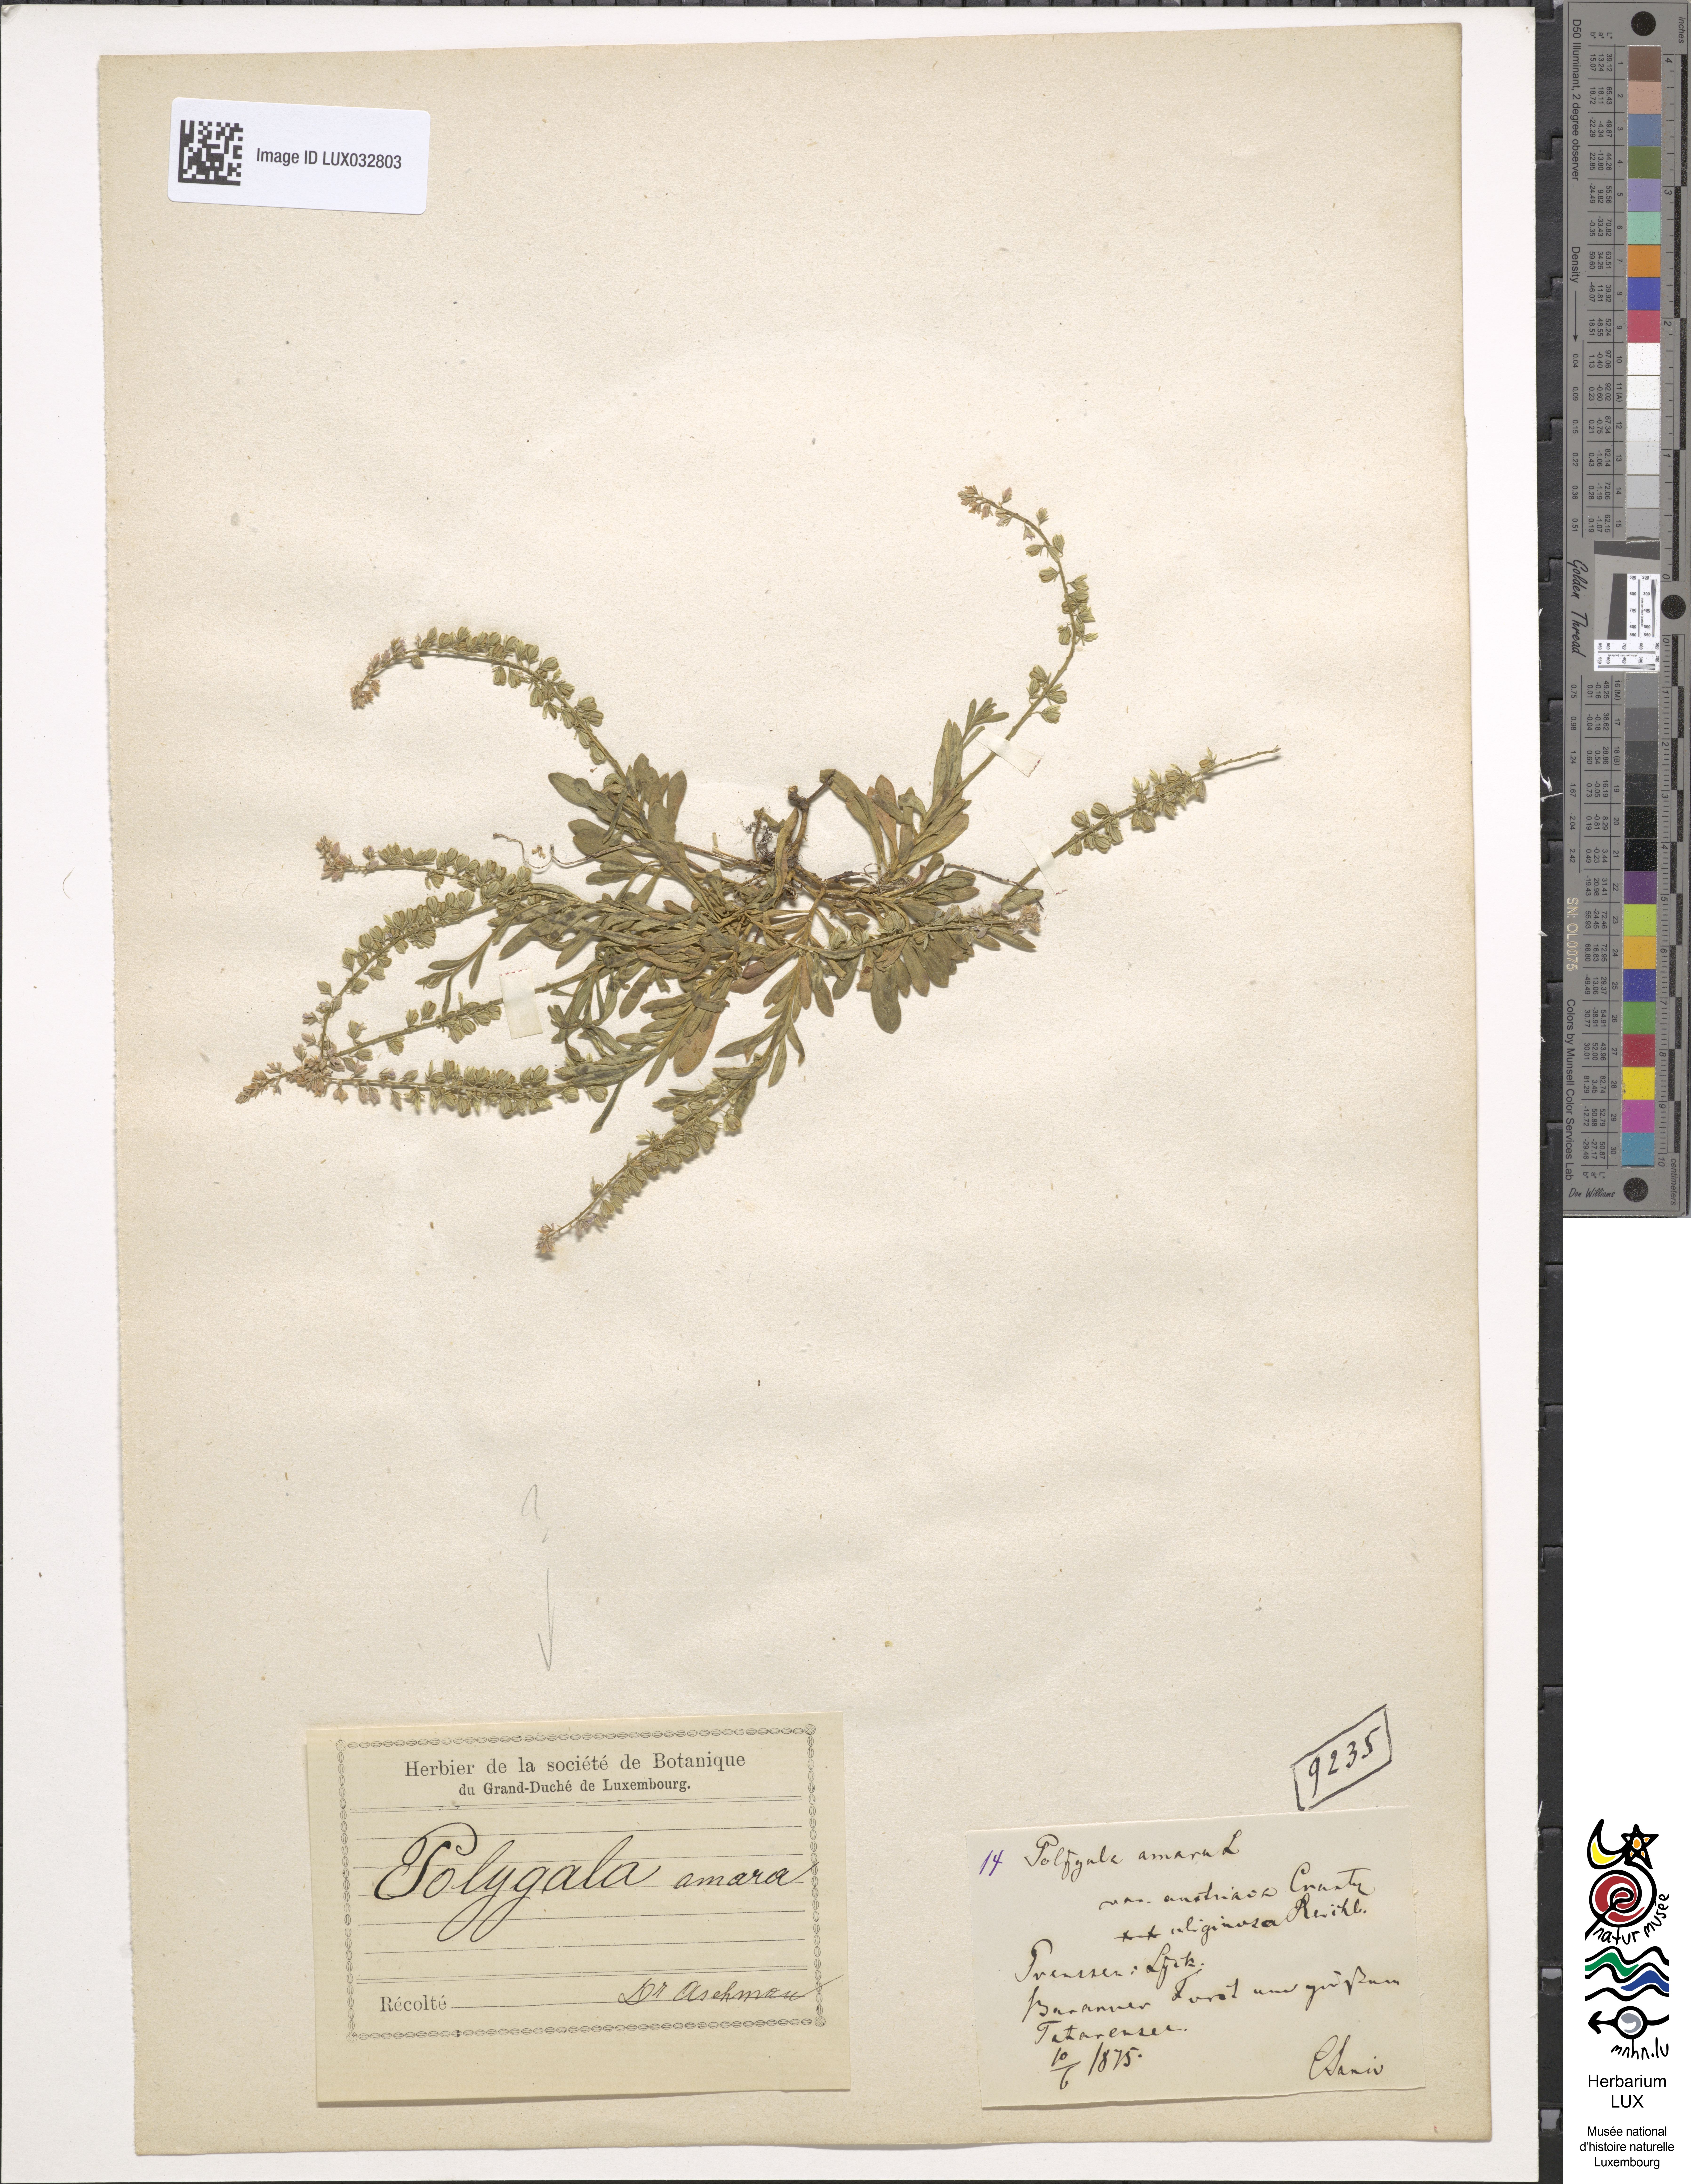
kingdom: Plantae
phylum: Tracheophyta
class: Magnoliopsida
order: Fabales
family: Polygalaceae
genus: Polygala
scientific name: Polygala amara
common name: Milkwort
